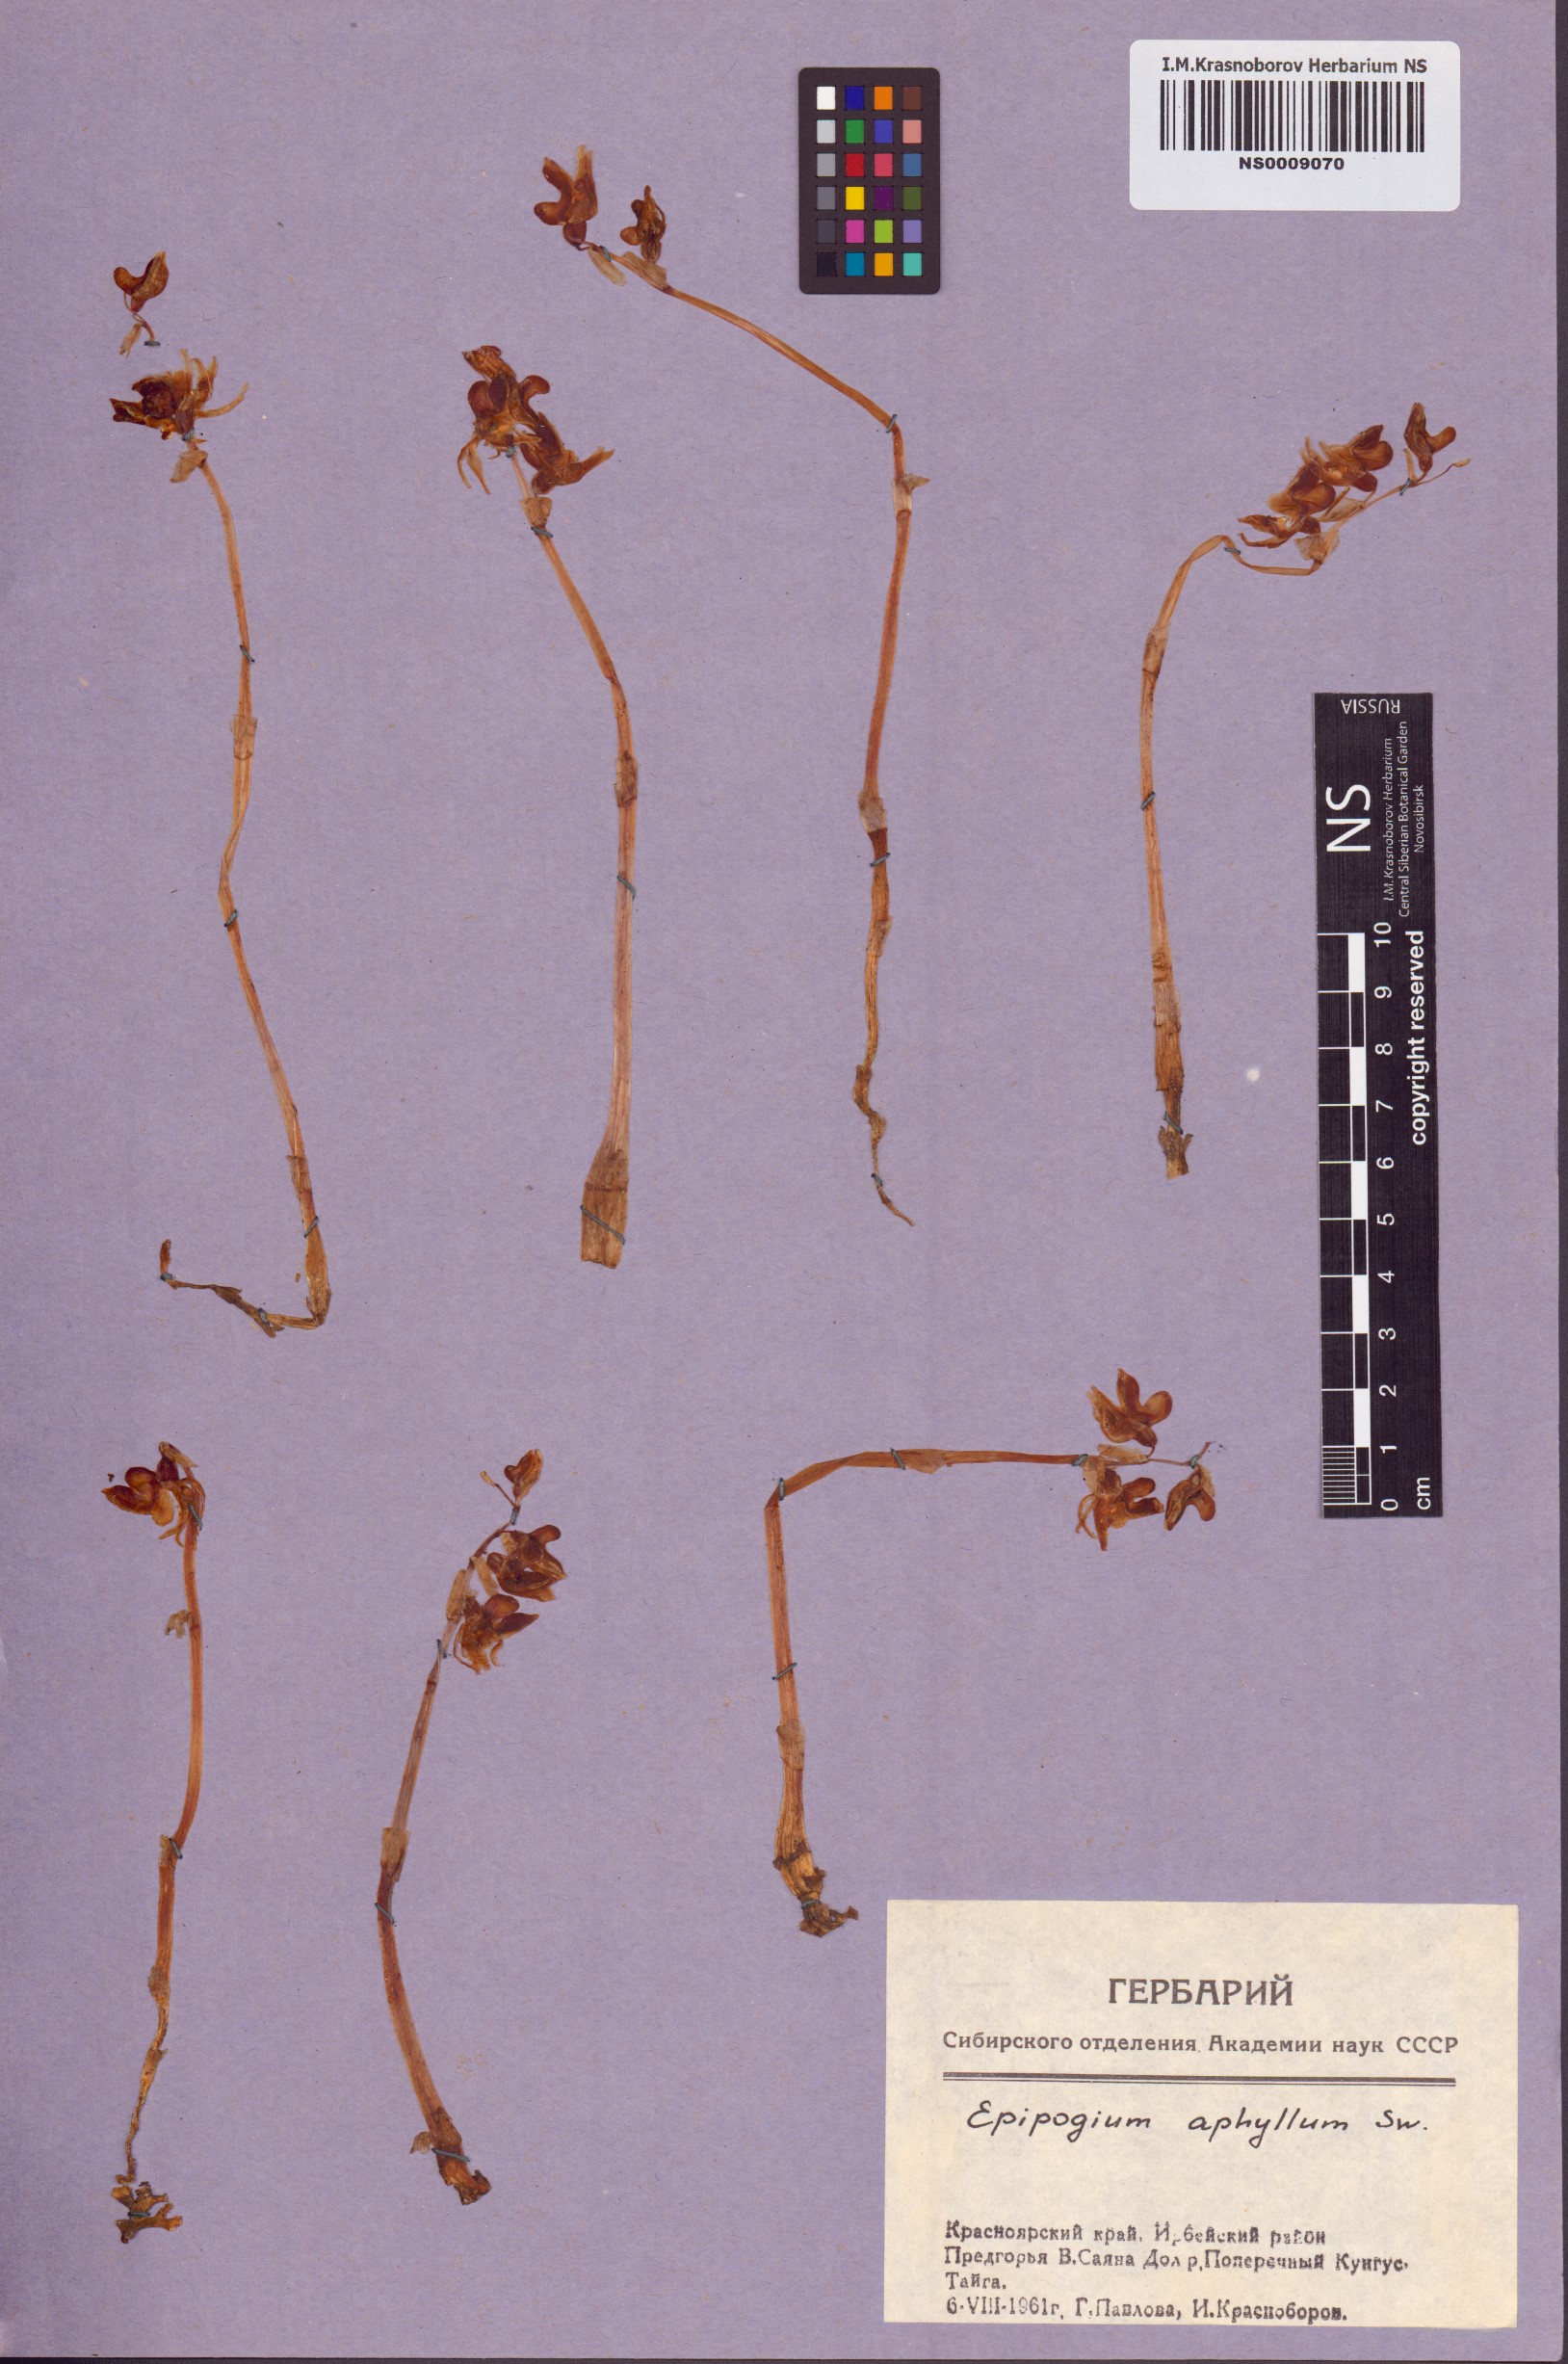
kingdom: Plantae
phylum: Tracheophyta
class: Liliopsida
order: Asparagales
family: Orchidaceae
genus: Epipogium
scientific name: Epipogium aphyllum
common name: Ghost orchid
